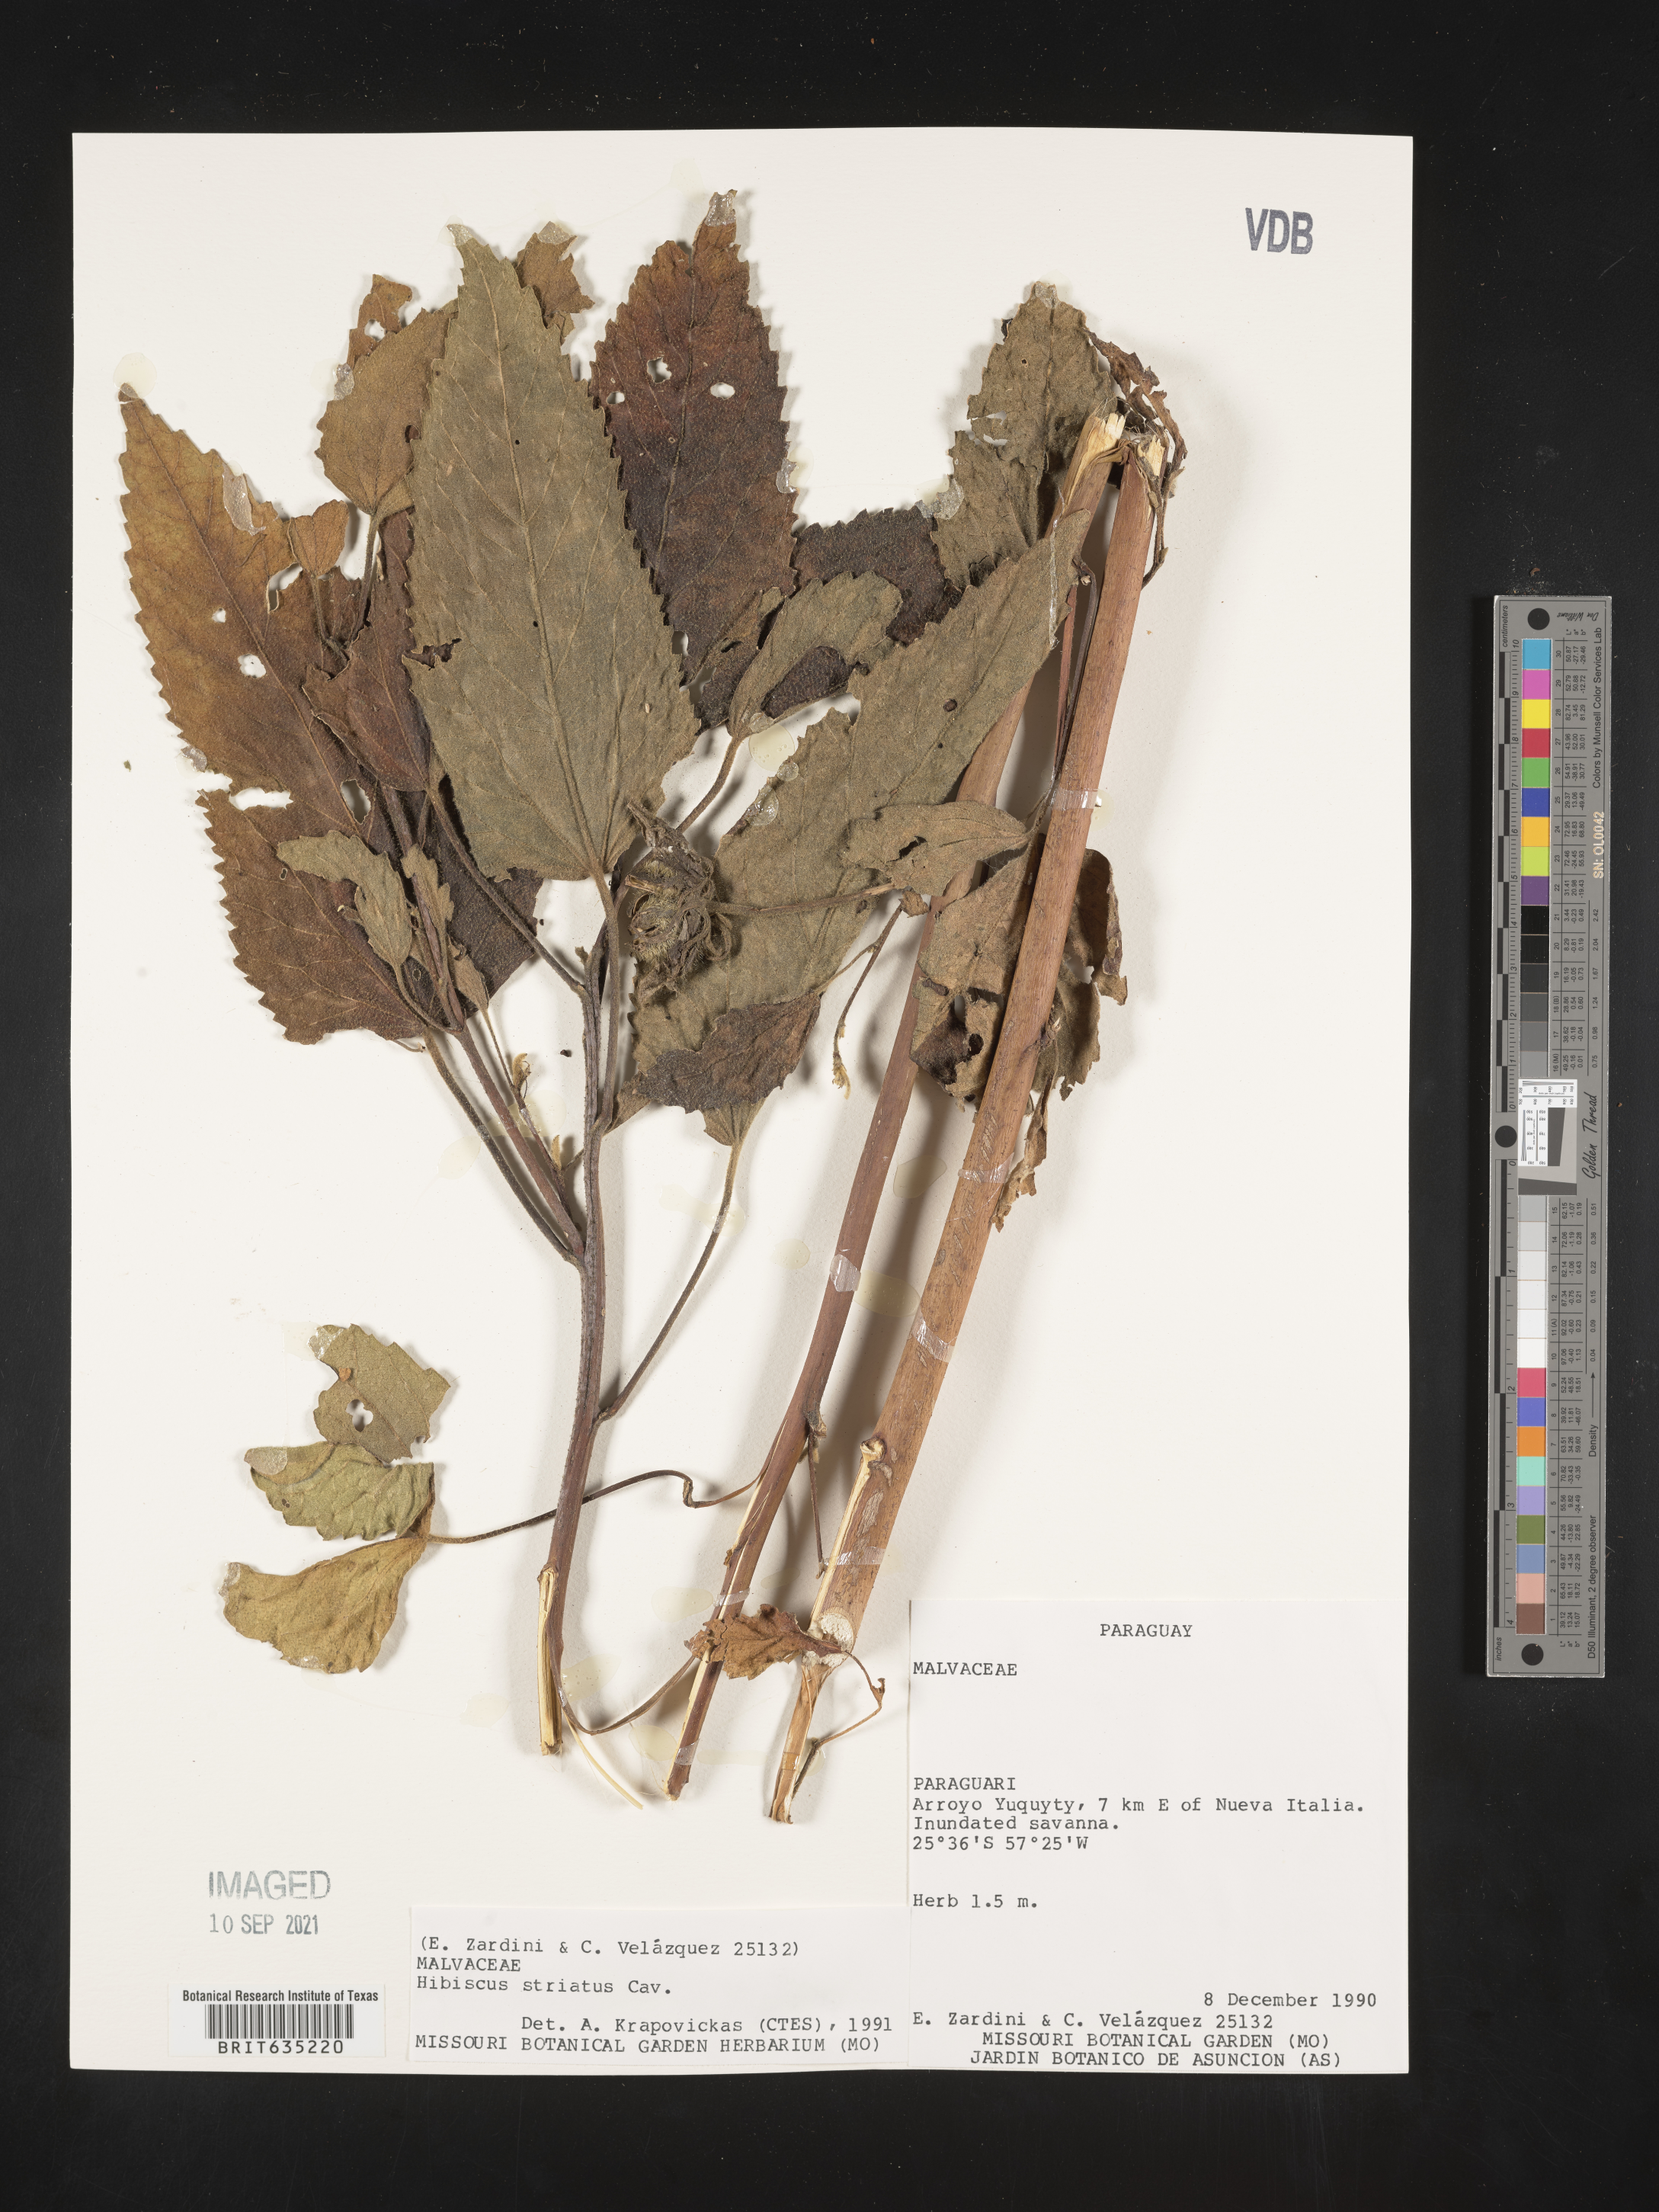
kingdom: Plantae
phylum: Tracheophyta
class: Magnoliopsida
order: Malvales
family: Malvaceae
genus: Hibiscus
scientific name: Hibiscus
